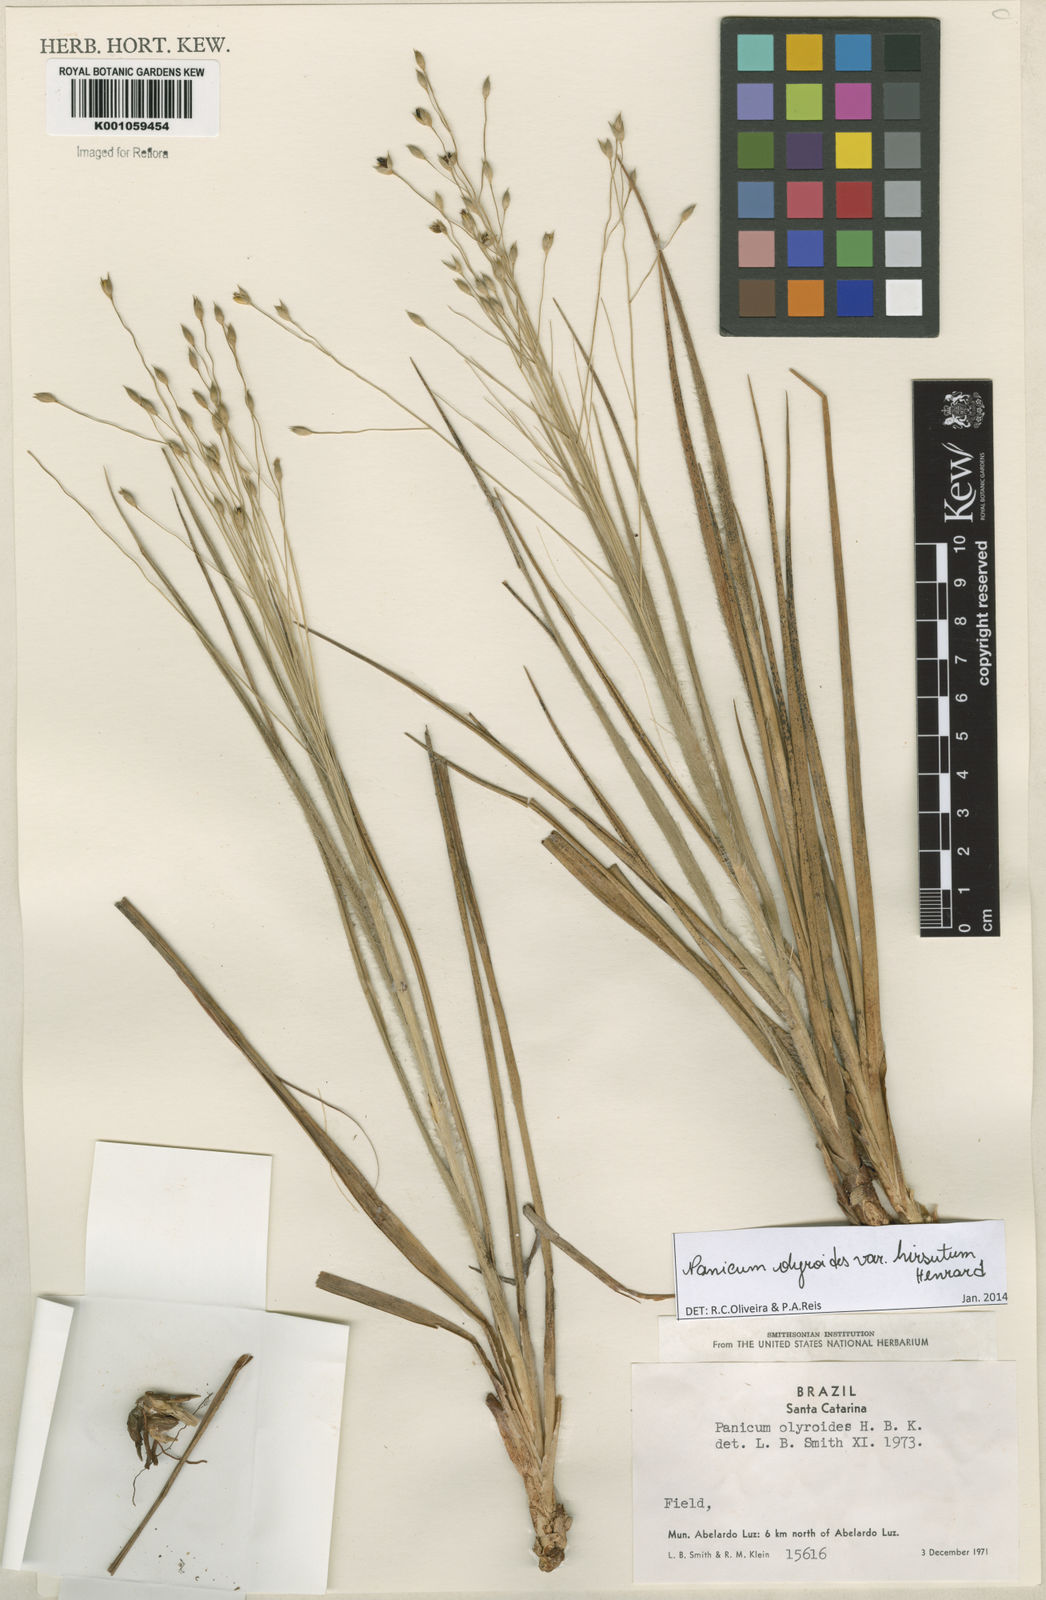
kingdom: Plantae
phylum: Tracheophyta
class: Liliopsida
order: Poales
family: Poaceae
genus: Panicum
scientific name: Panicum olyroides
